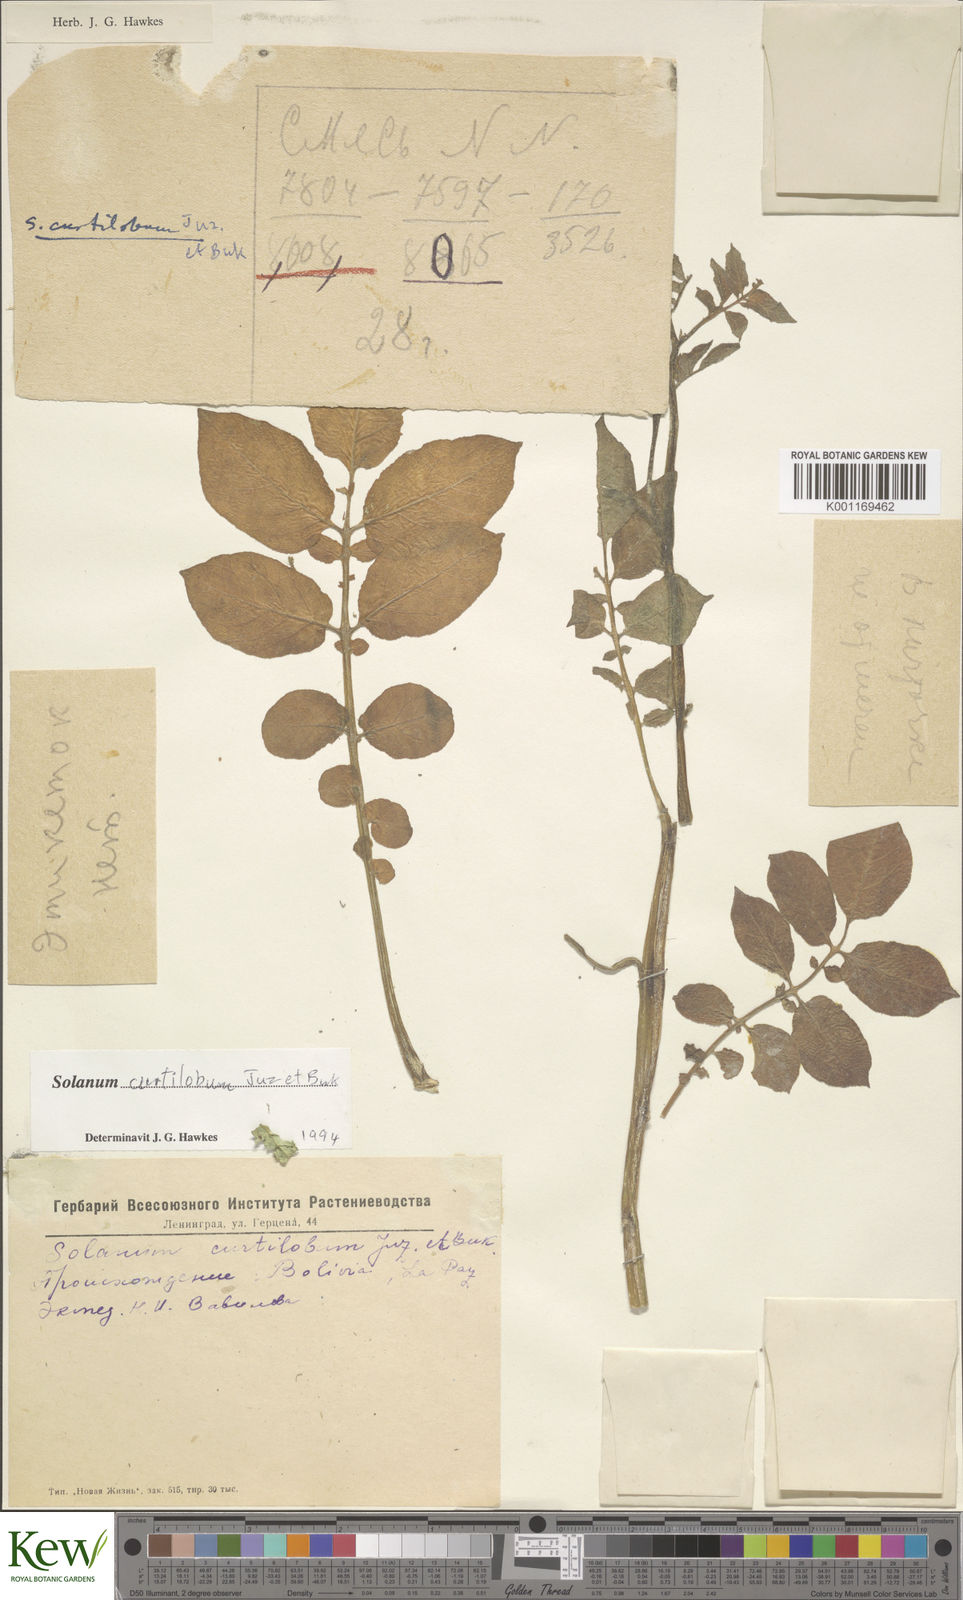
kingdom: Plantae
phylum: Tracheophyta
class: Magnoliopsida
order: Solanales
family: Solanaceae
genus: Solanum
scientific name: Solanum curtilobum
